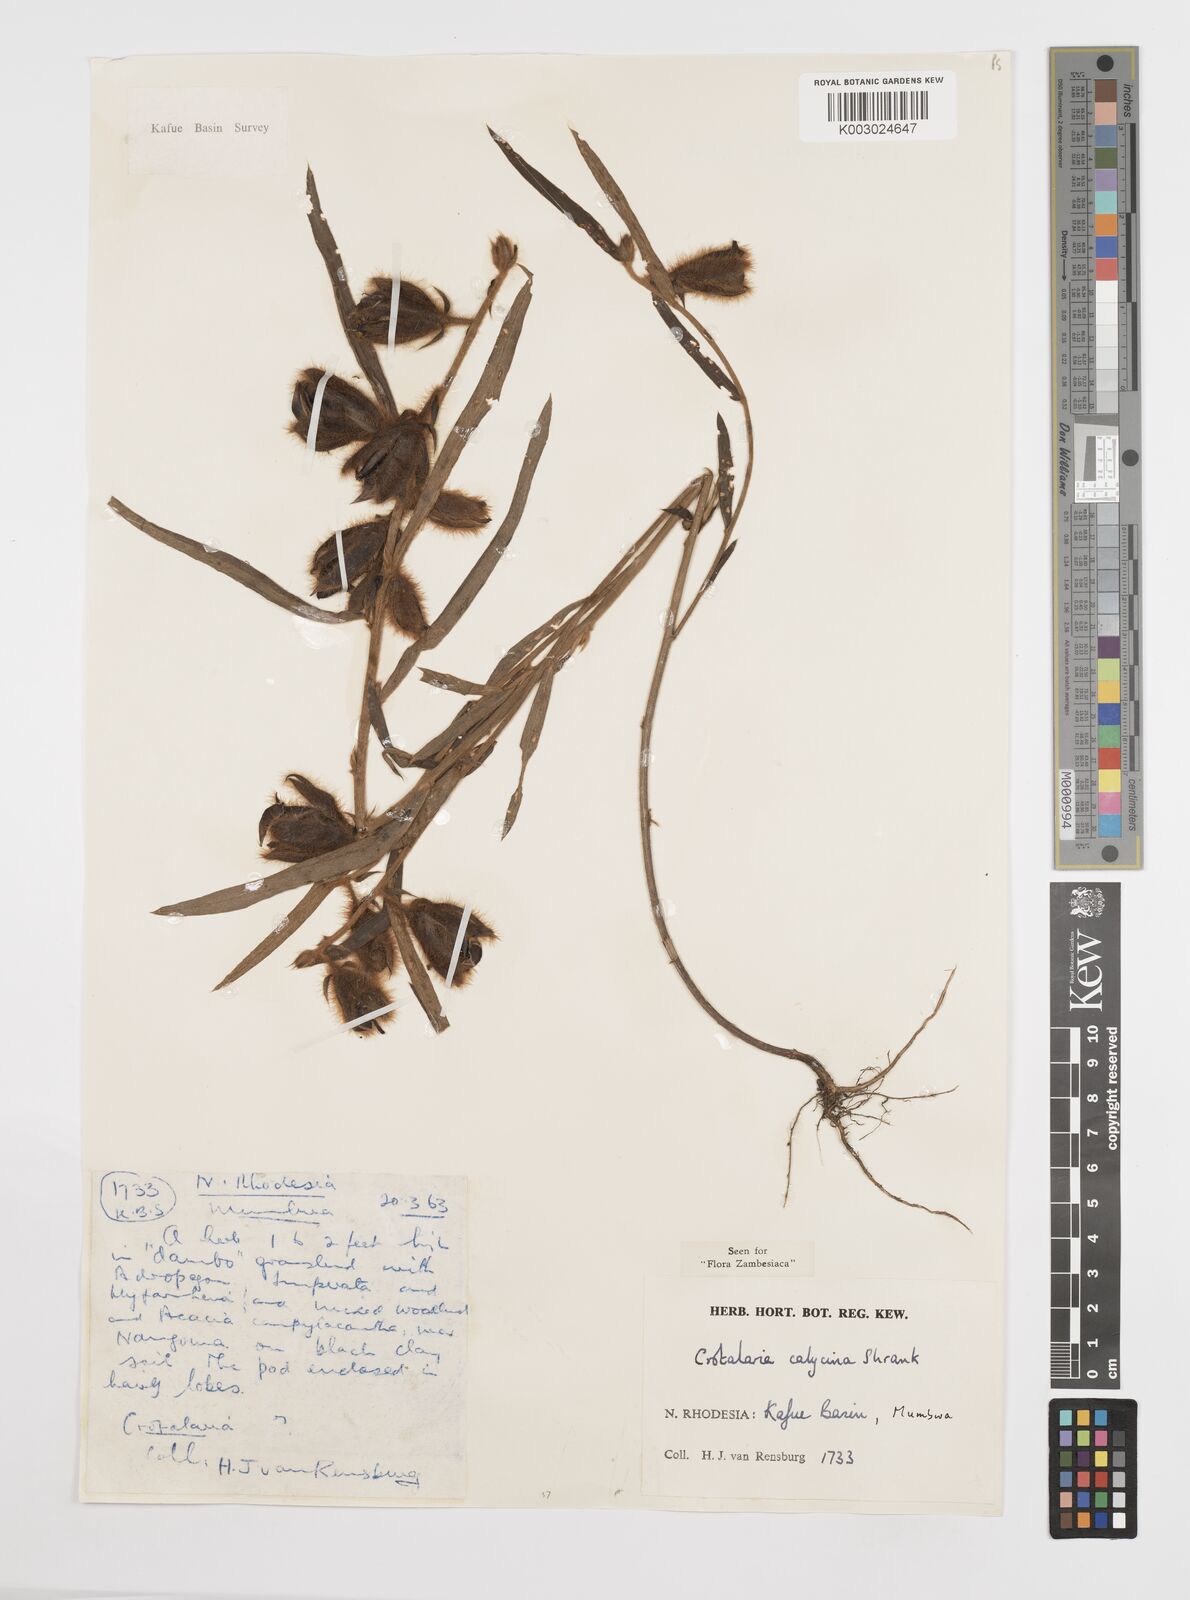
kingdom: Plantae
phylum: Tracheophyta
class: Magnoliopsida
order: Fabales
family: Fabaceae
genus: Crotalaria
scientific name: Crotalaria calycina
